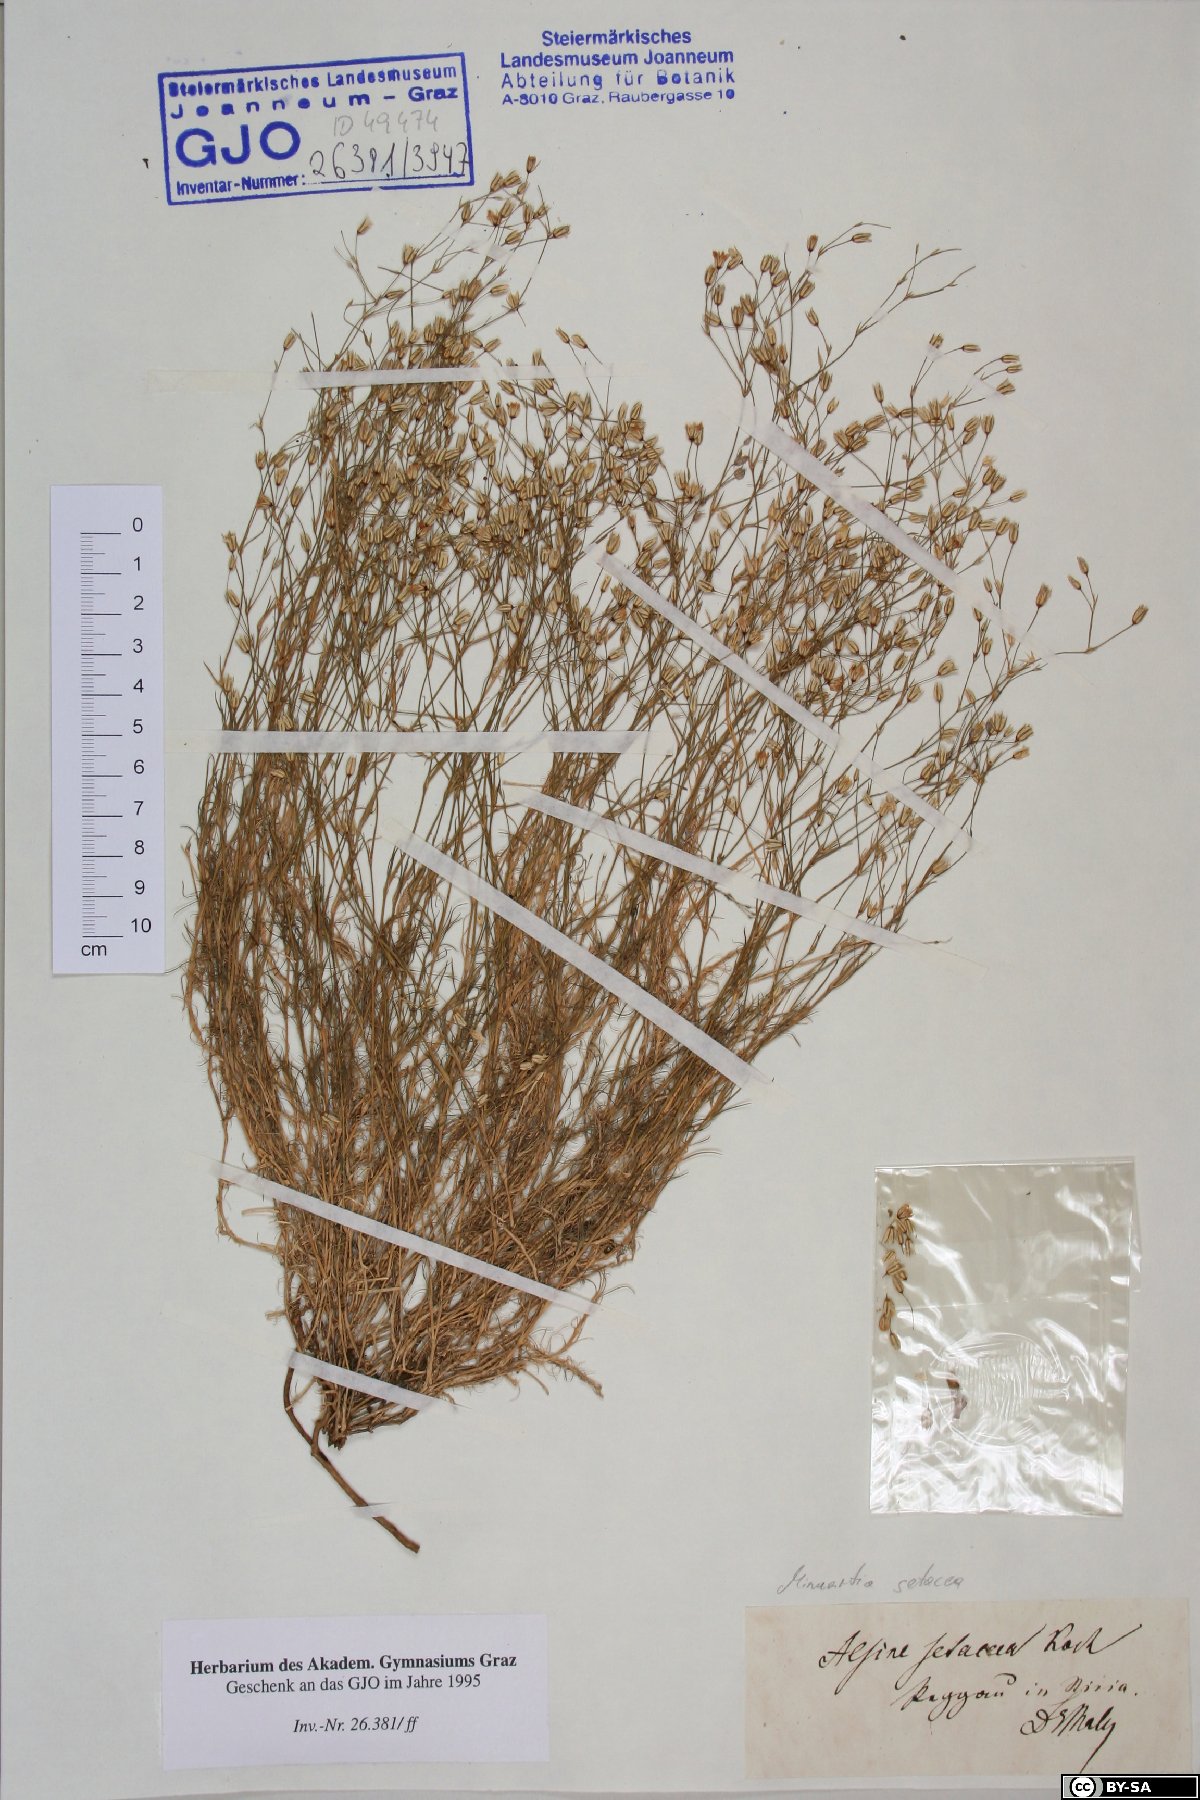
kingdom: Plantae
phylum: Tracheophyta
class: Magnoliopsida
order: Caryophyllales
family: Caryophyllaceae
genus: Minuartia
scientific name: Minuartia setacea
